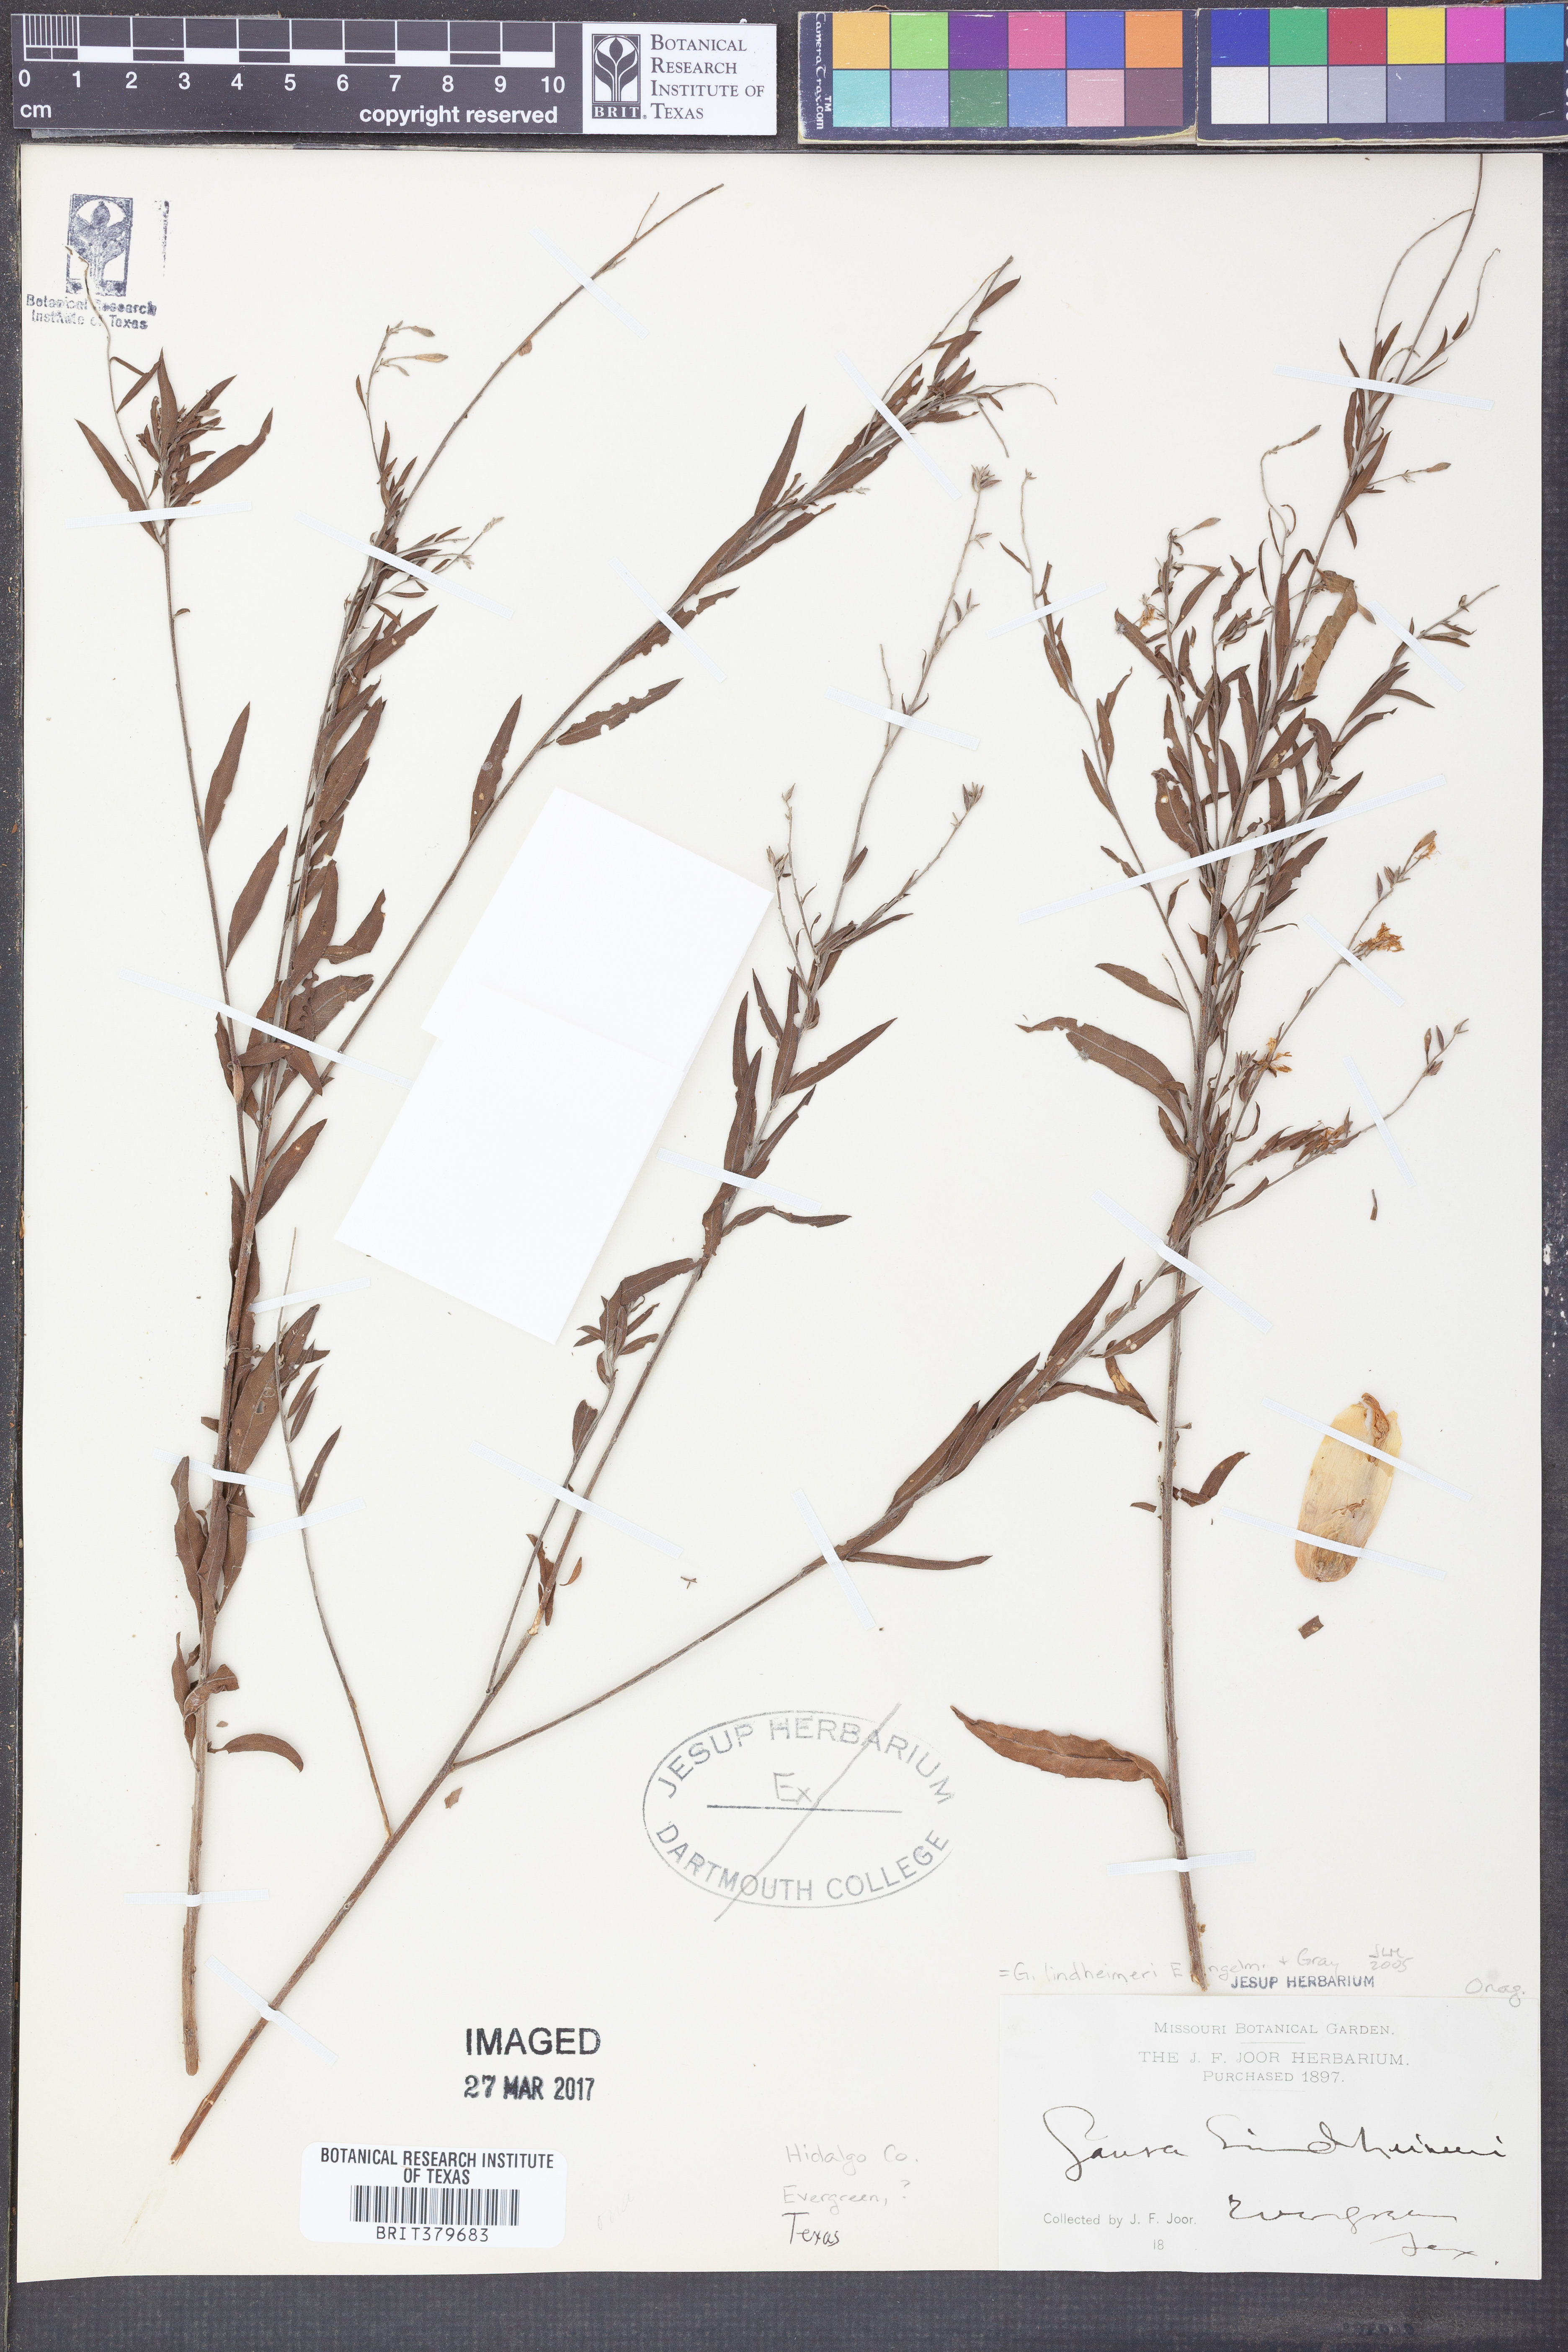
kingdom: Plantae
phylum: Tracheophyta
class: Magnoliopsida
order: Myrtales
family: Onagraceae
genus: Oenothera
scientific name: Oenothera lindheimeri
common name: Lindheimer's beeblossom
